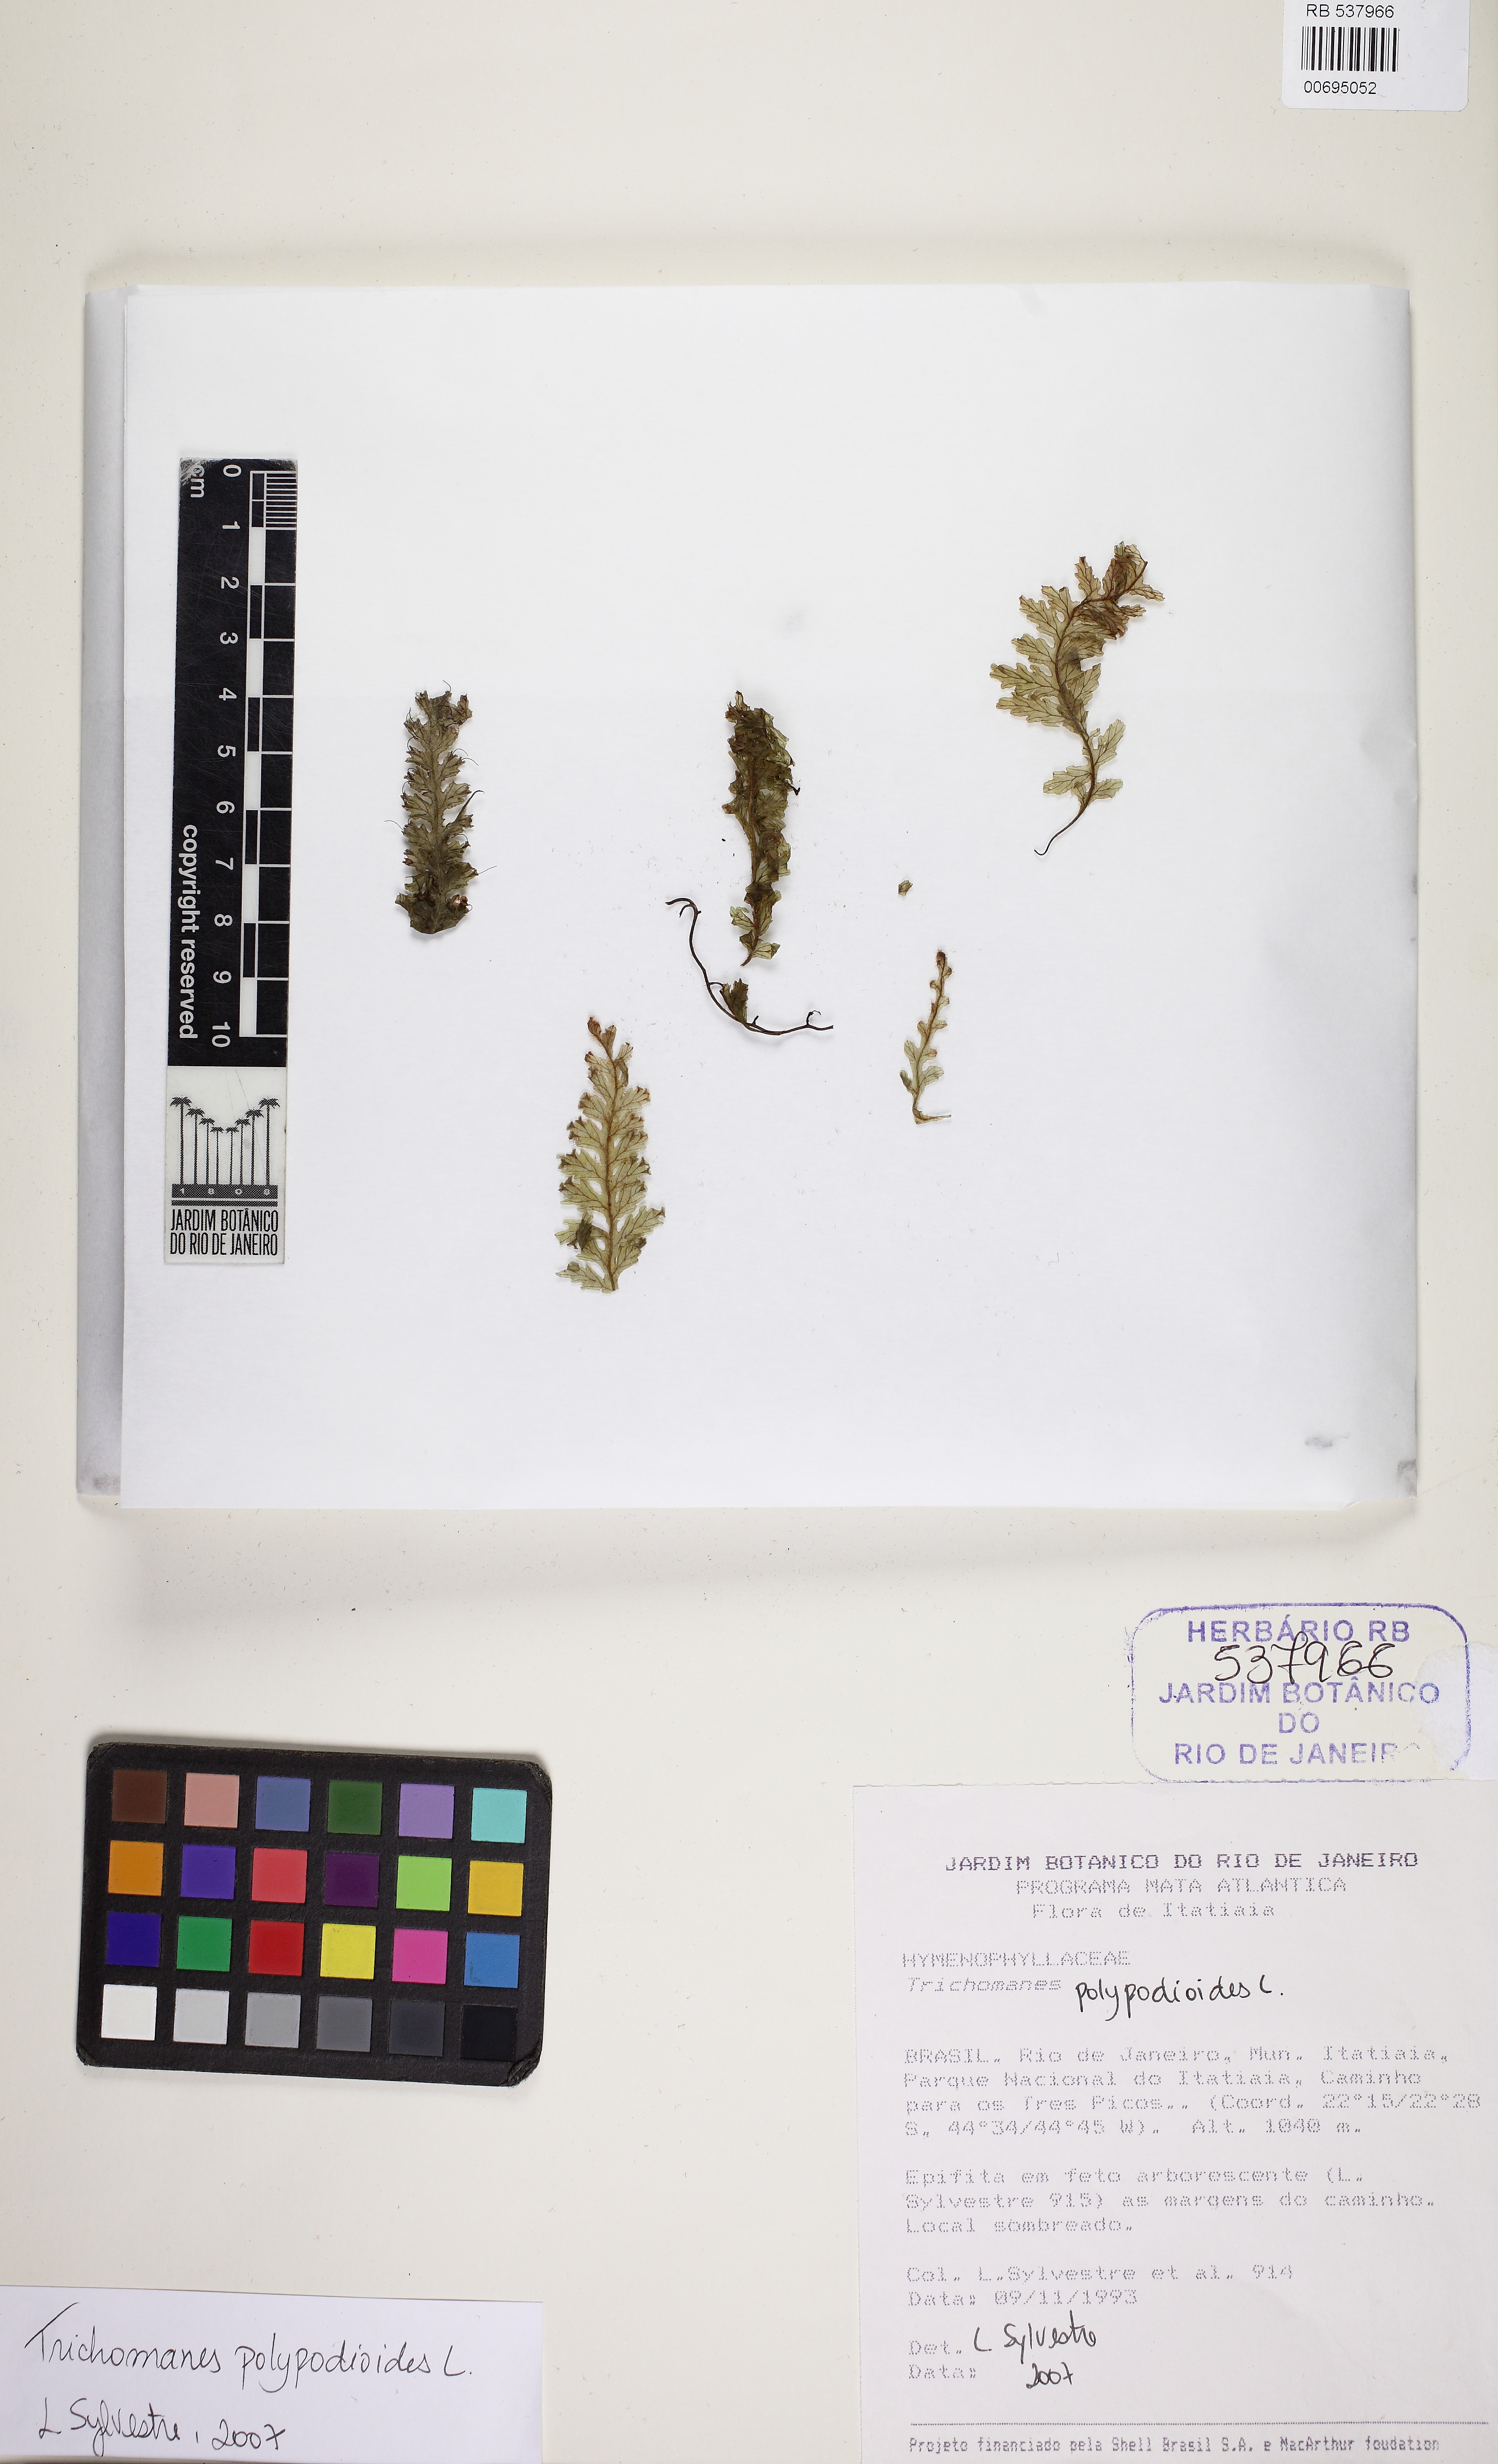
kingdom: Plantae
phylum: Tracheophyta
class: Polypodiopsida
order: Hymenophyllales
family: Hymenophyllaceae
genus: Trichomanes
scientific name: Trichomanes polypodioides
